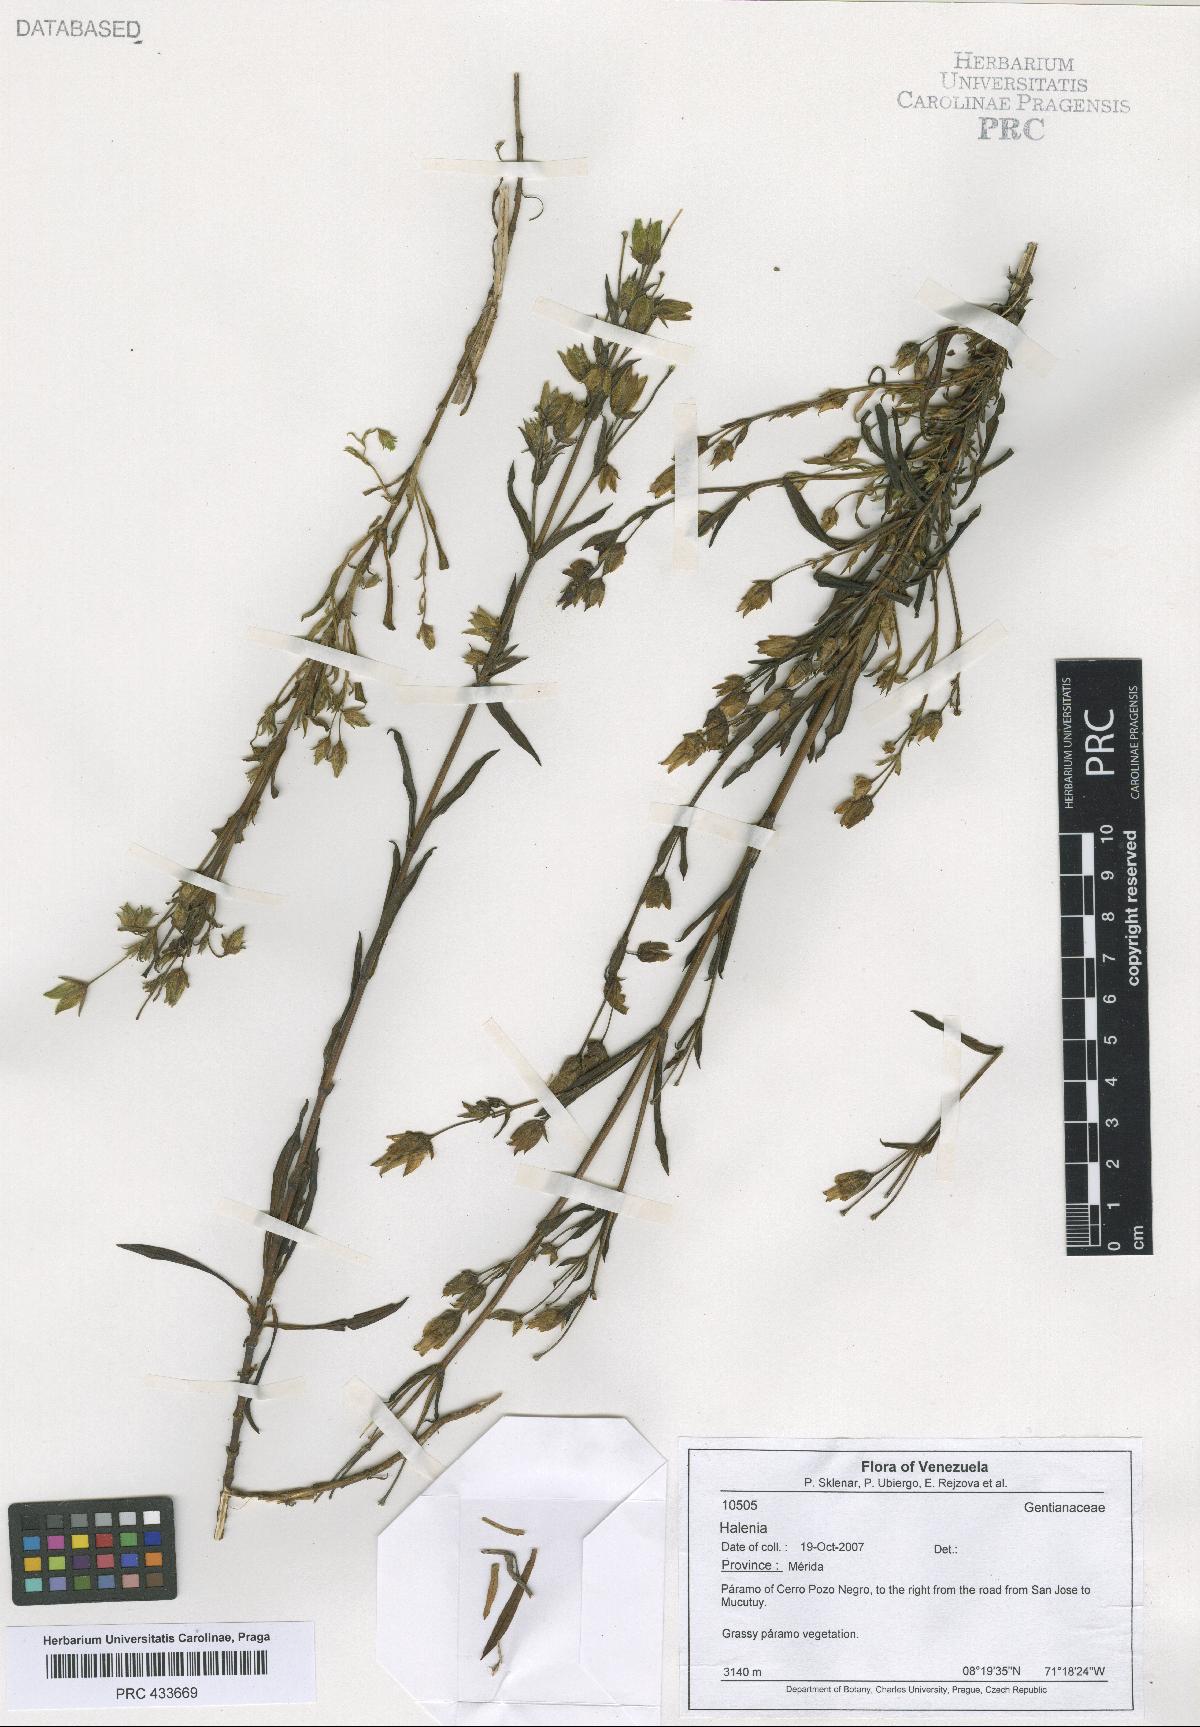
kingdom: Plantae
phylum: Tracheophyta
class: Magnoliopsida
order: Gentianales
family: Gentianaceae
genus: Halenia
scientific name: Halenia
